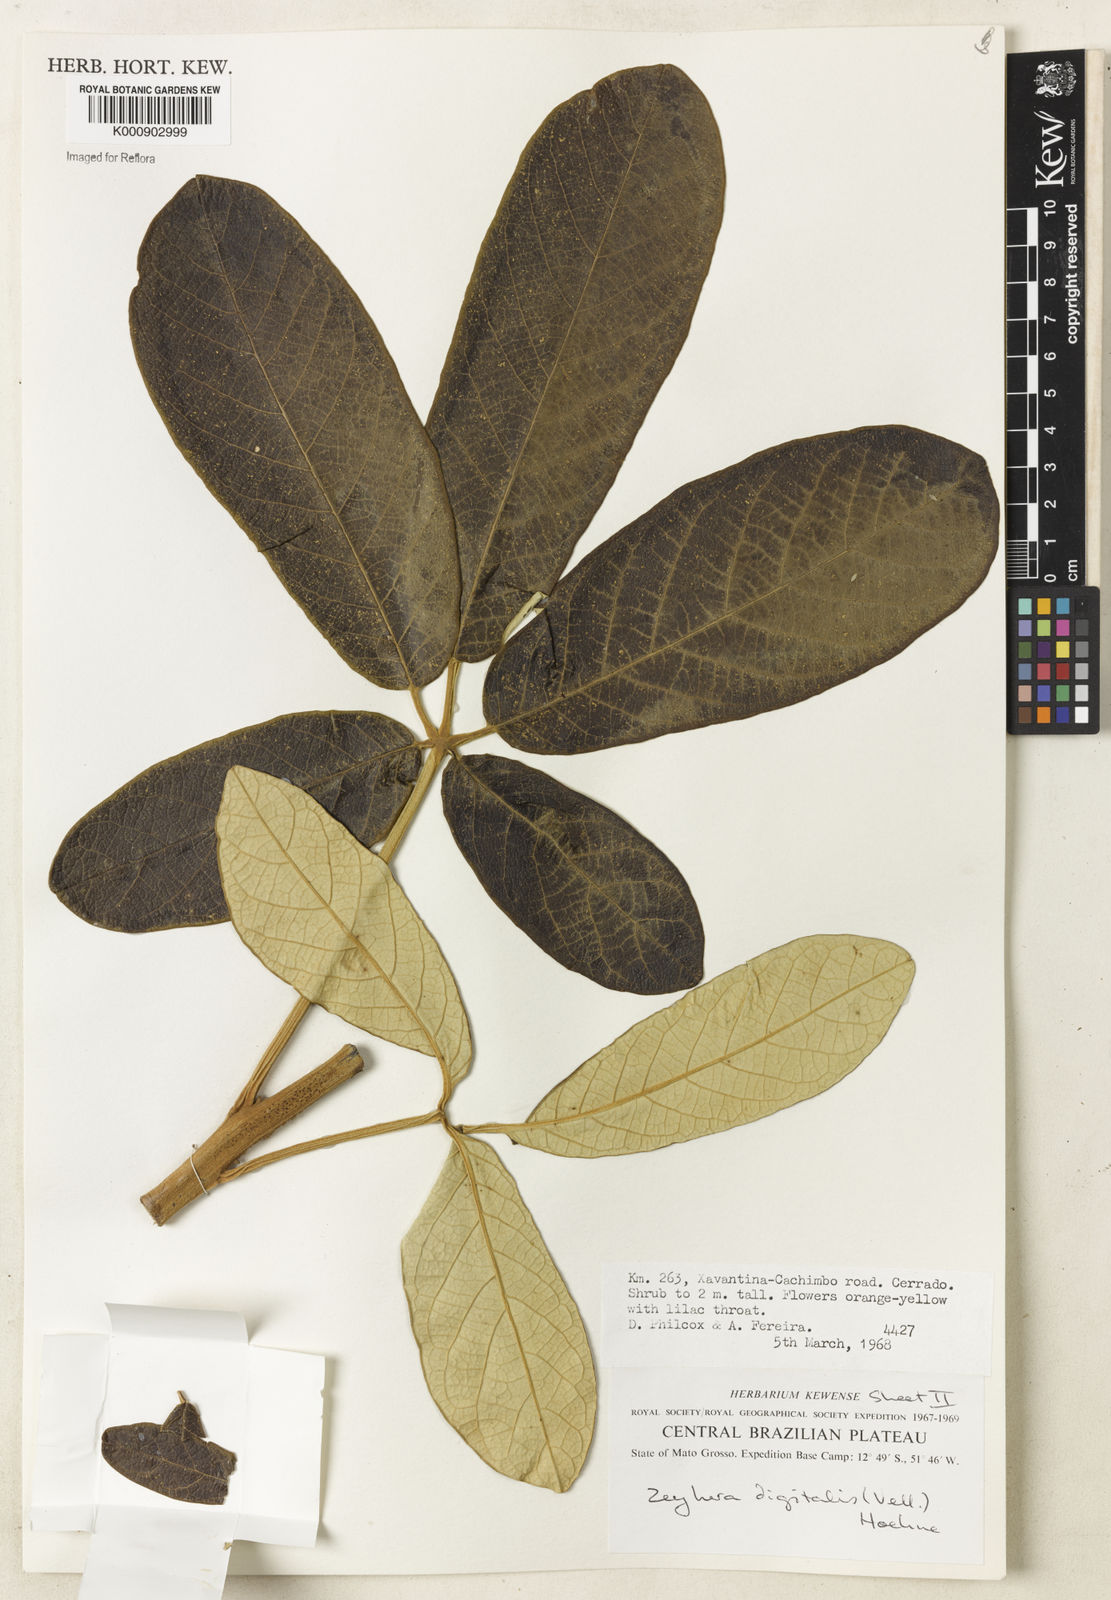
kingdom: Plantae
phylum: Tracheophyta
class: Magnoliopsida
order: Lamiales
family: Bignoniaceae
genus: Zeyheria
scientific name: Zeyheria
